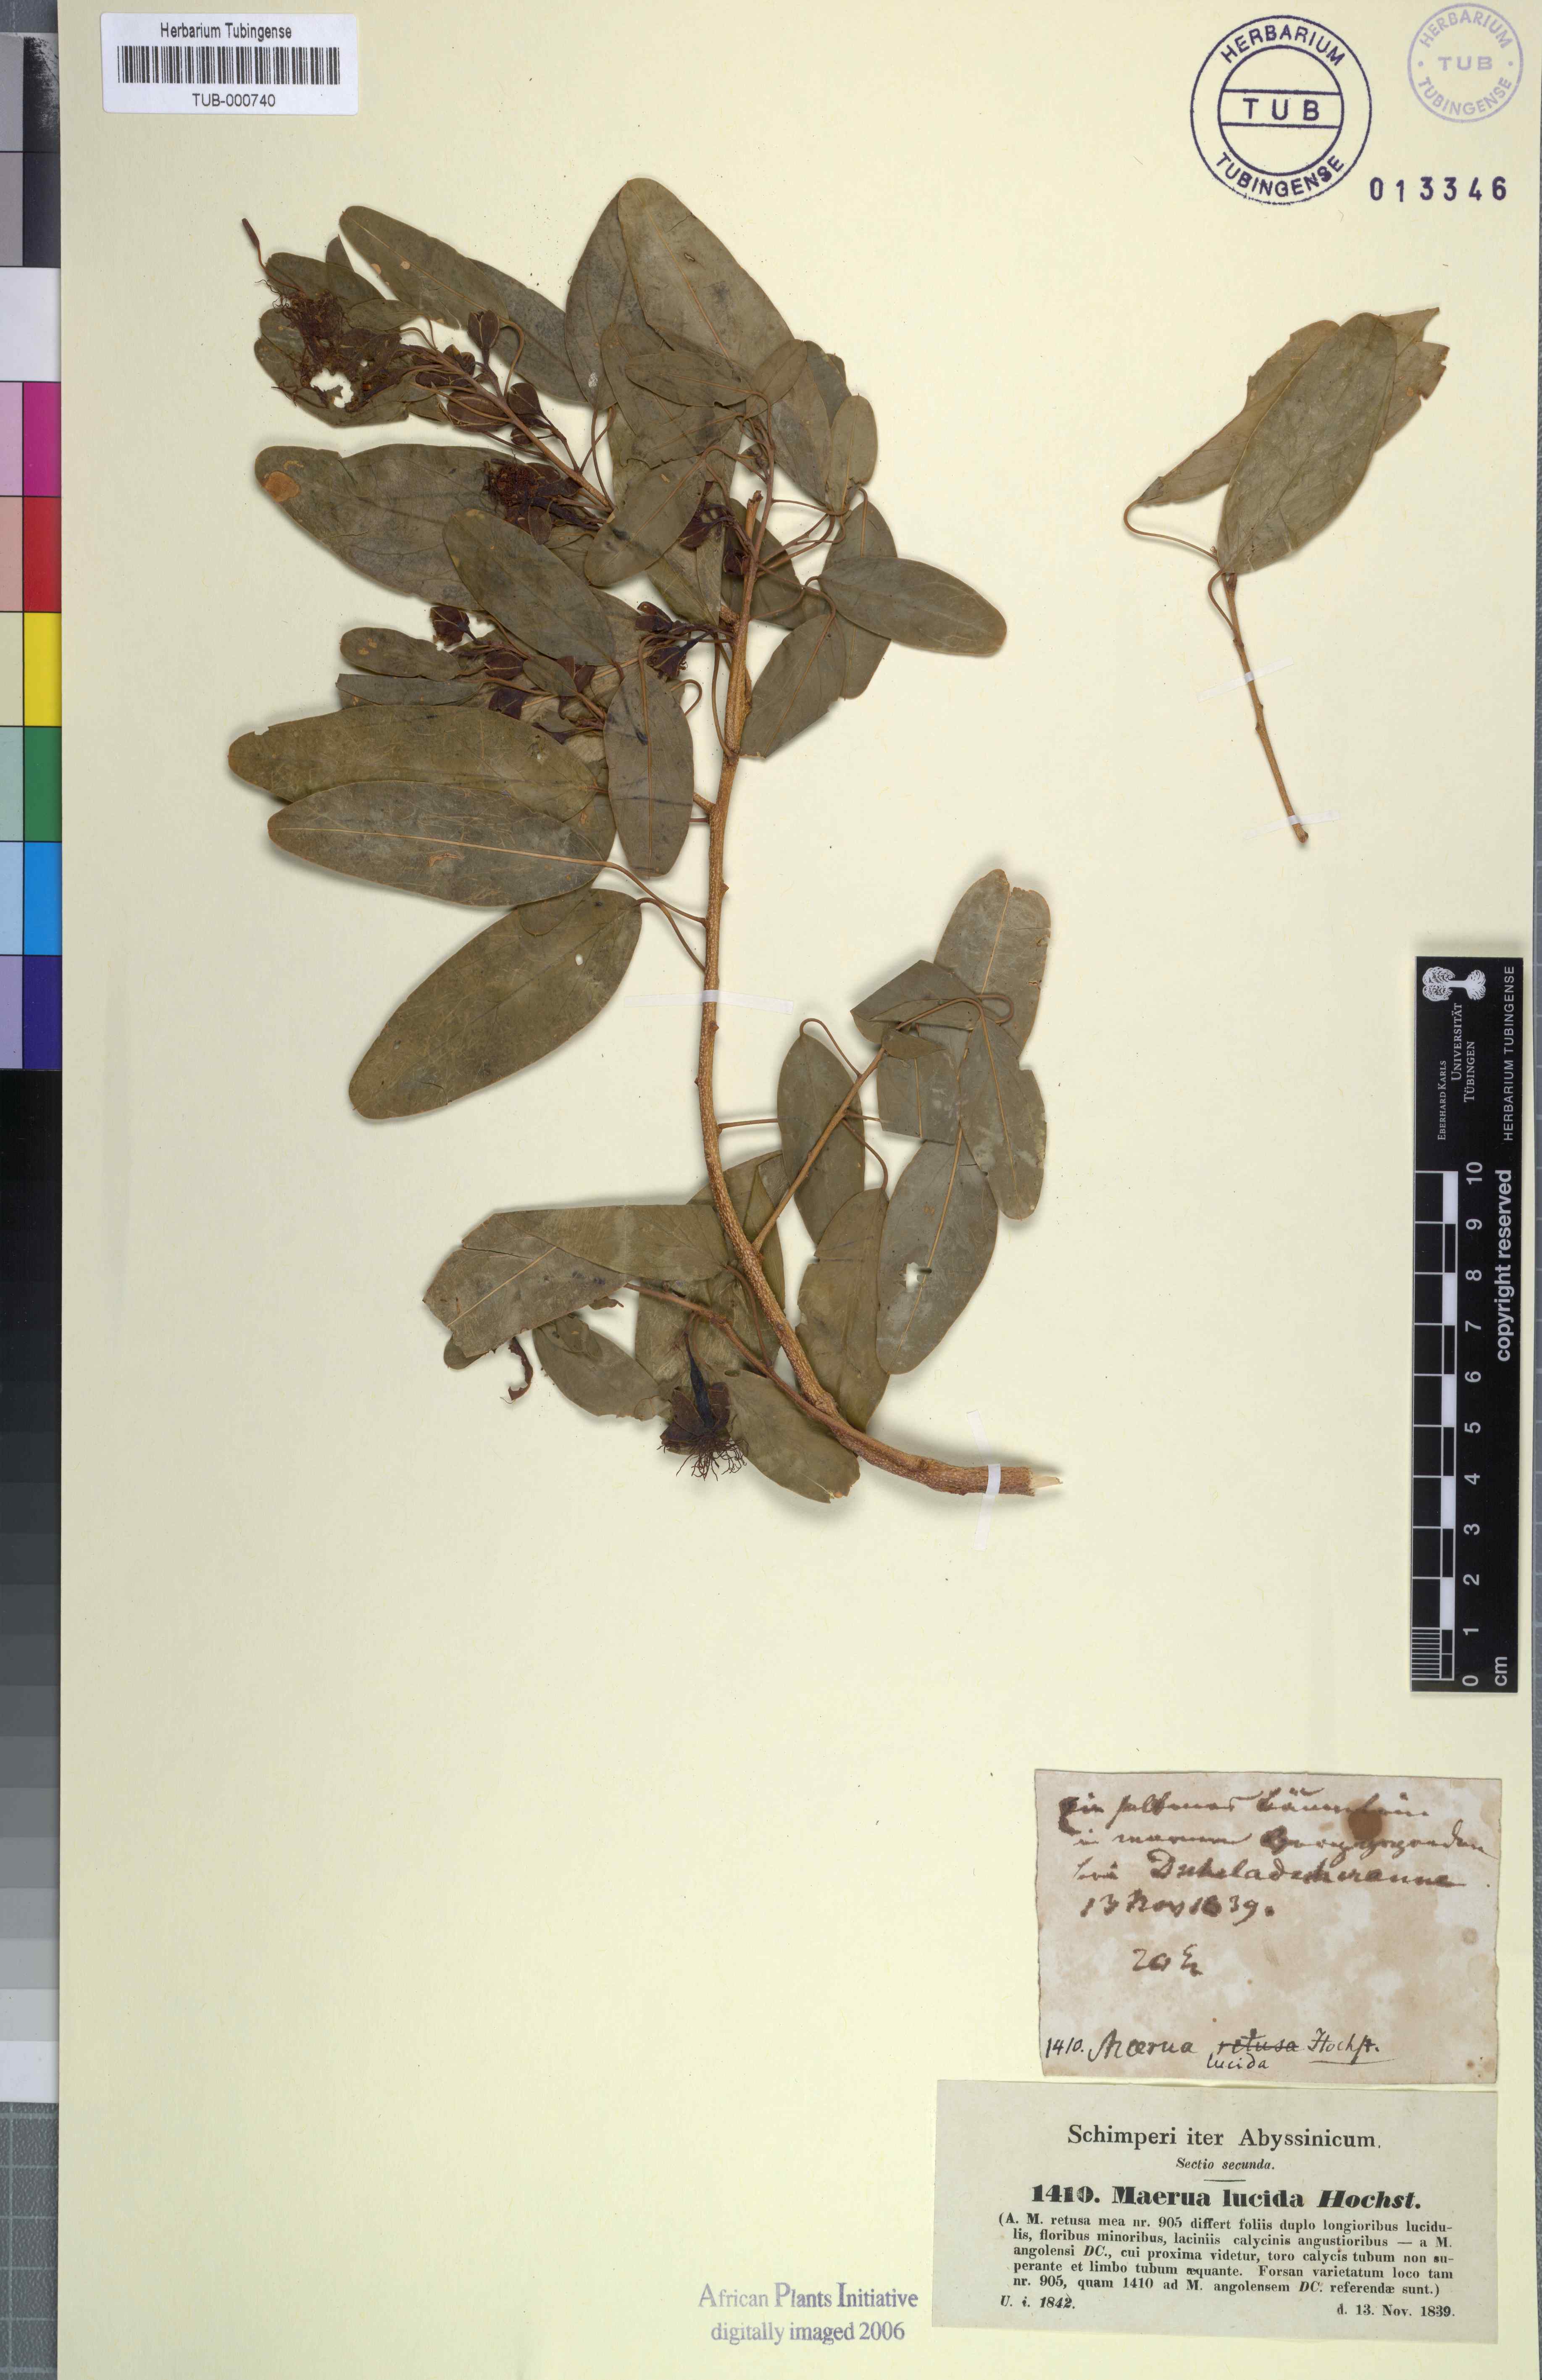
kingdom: Plantae
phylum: Tracheophyta
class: Magnoliopsida
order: Brassicales
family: Capparaceae
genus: Maerua
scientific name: Maerua angolensis
